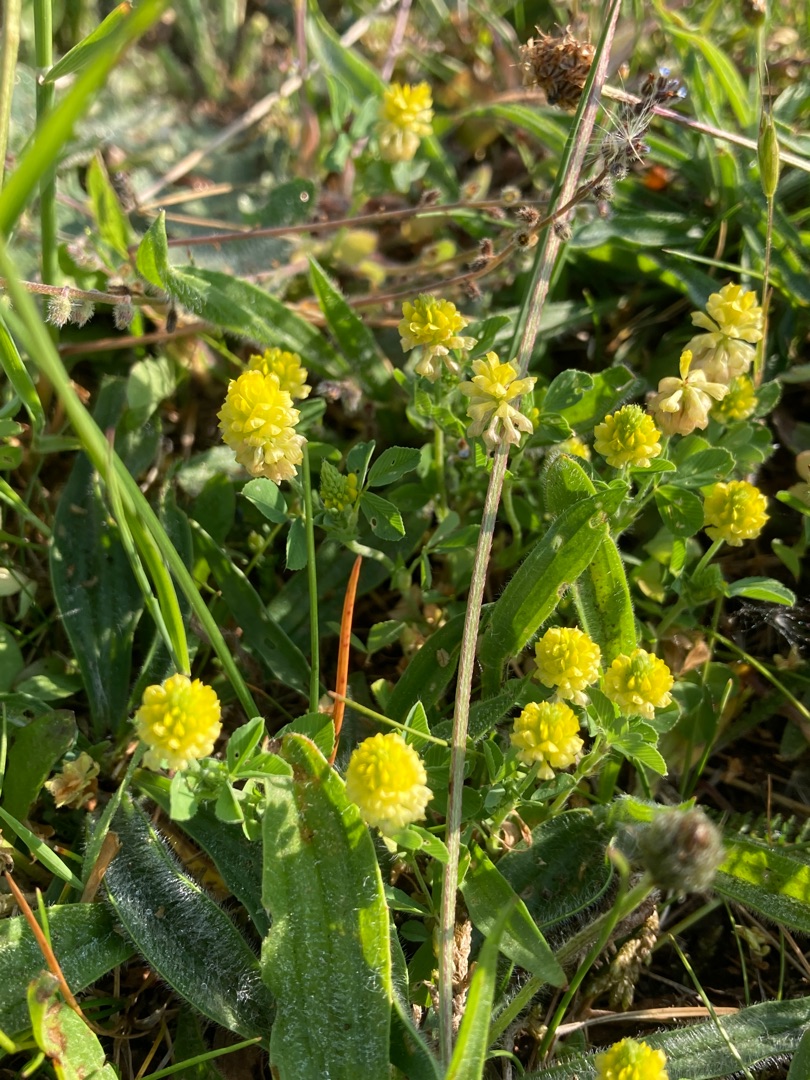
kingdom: Plantae
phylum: Tracheophyta
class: Magnoliopsida
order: Fabales
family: Fabaceae
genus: Trifolium
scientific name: Trifolium campestre
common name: Gul kløver
